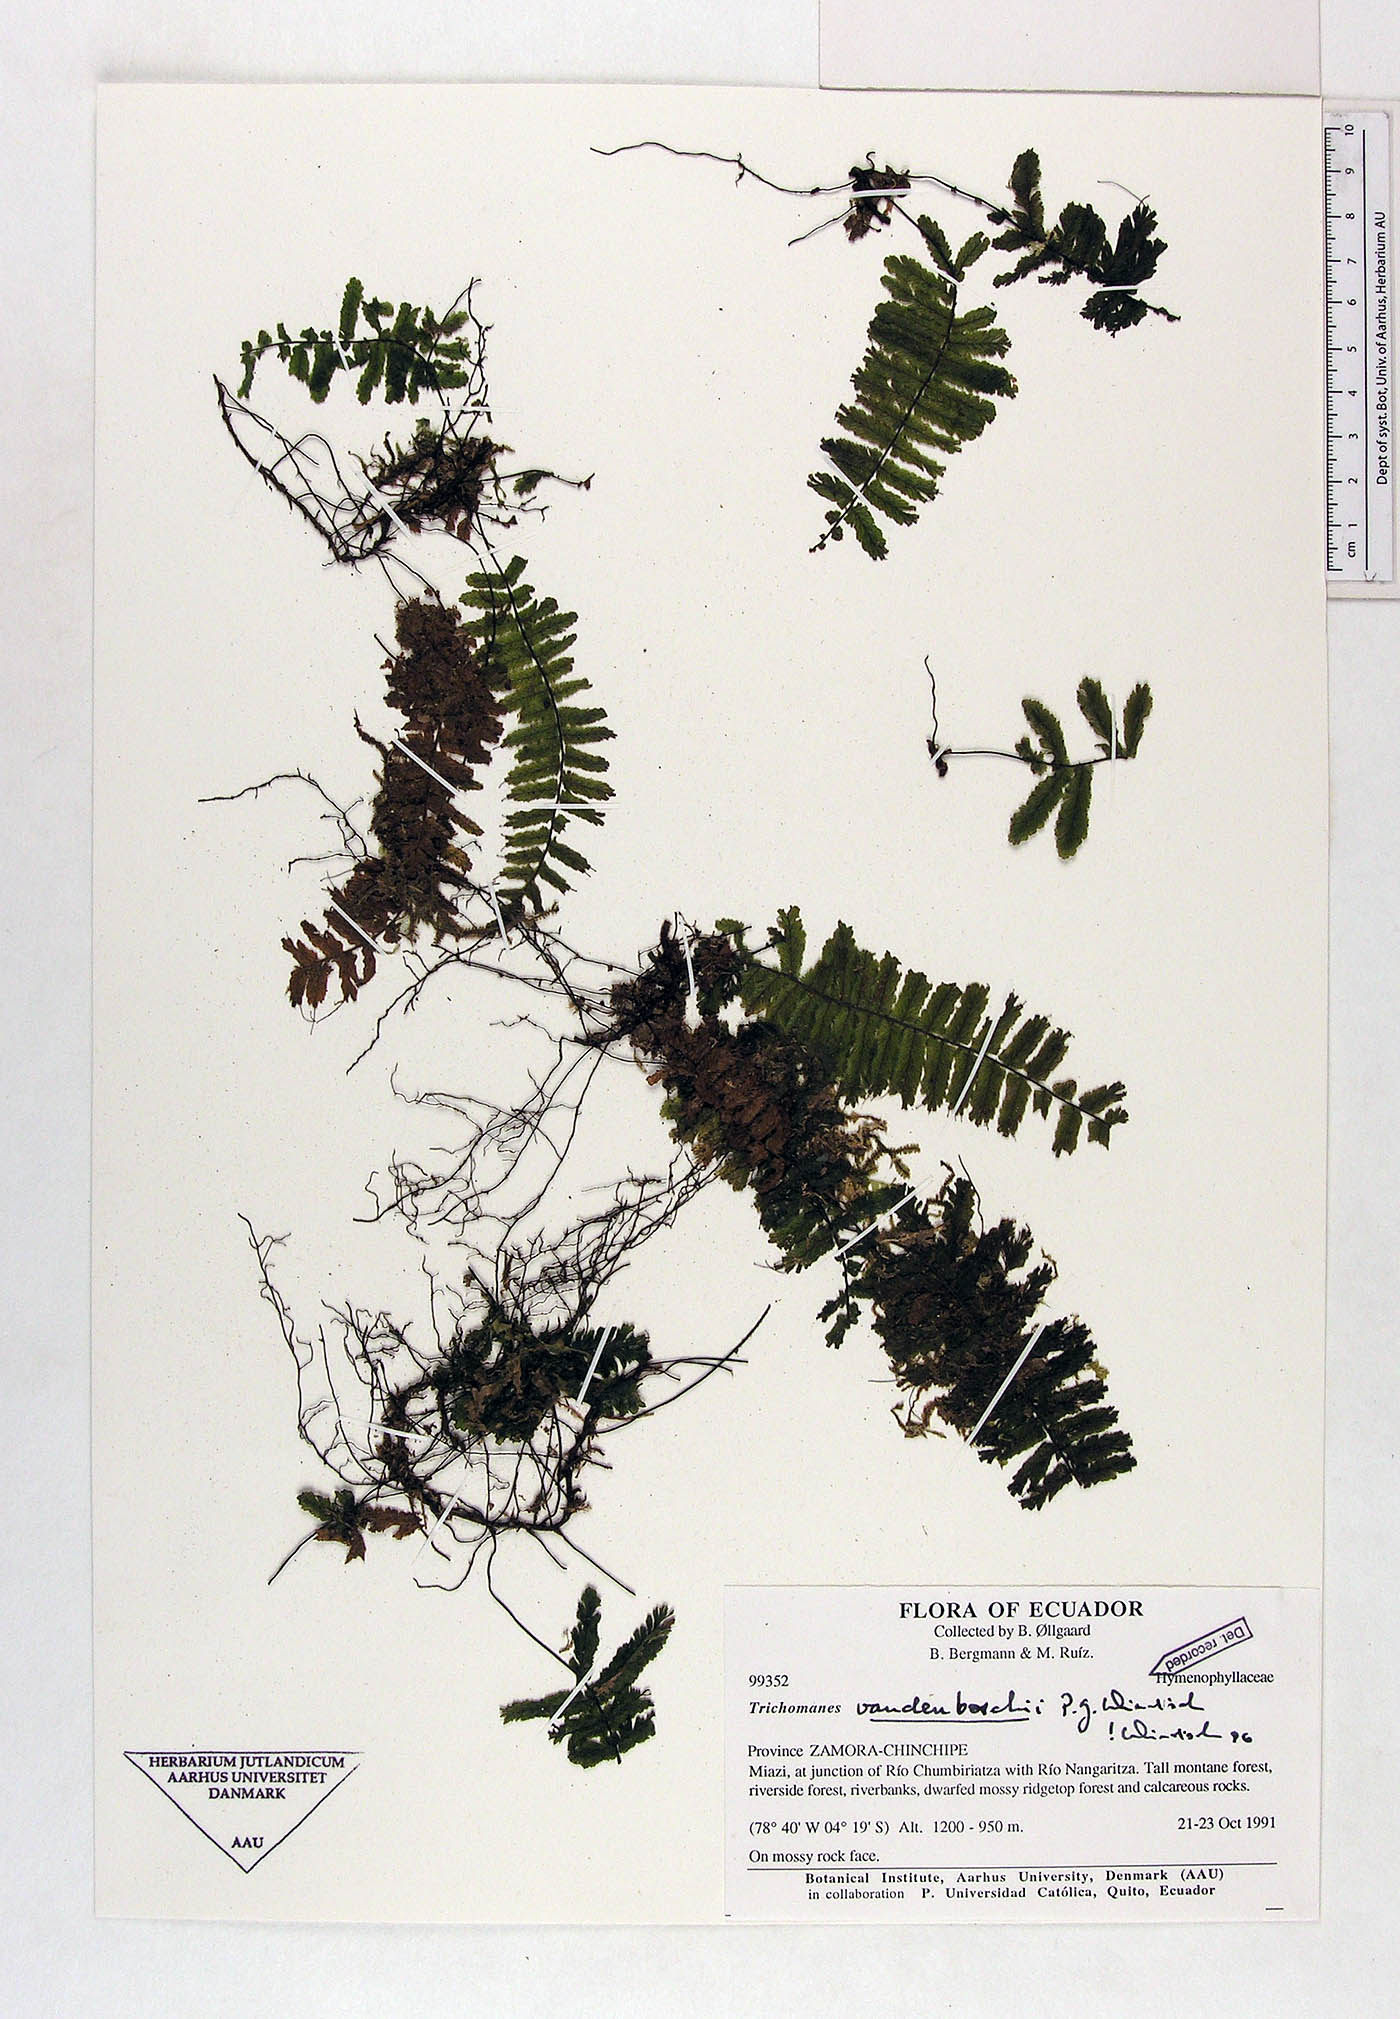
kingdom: Plantae
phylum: Tracheophyta
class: Polypodiopsida
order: Hymenophyllales
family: Hymenophyllaceae
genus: Trichomanes
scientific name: Trichomanes vandenboschii
